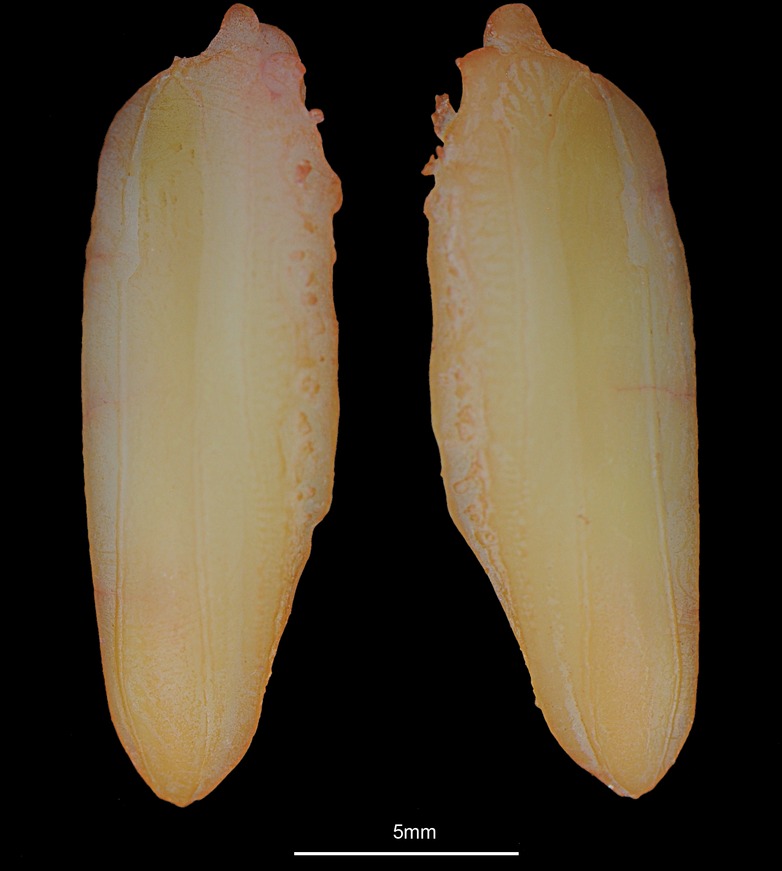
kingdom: Animalia
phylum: Chordata
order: Gadiformes
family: Phycidae
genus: Phycis
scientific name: Phycis blennoides
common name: Forked hake
